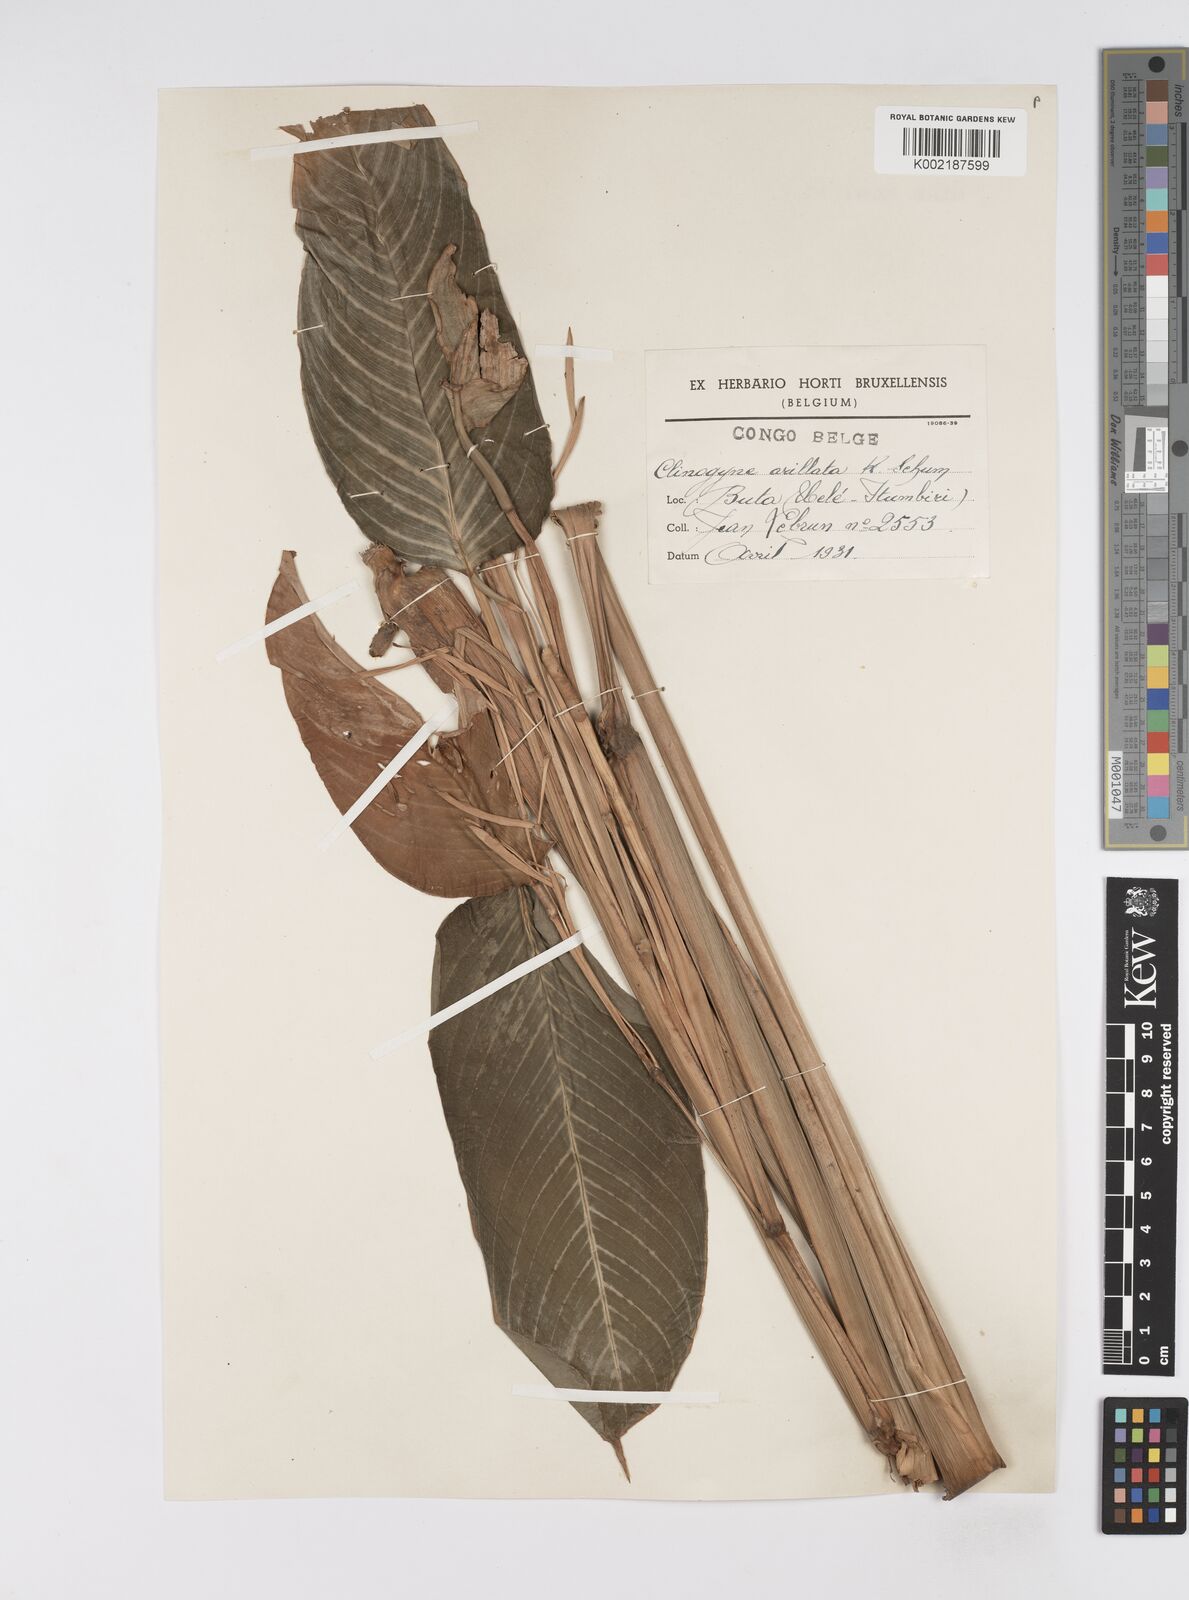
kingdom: Plantae
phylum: Tracheophyta
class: Liliopsida
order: Zingiberales
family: Marantaceae
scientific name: Marantaceae
